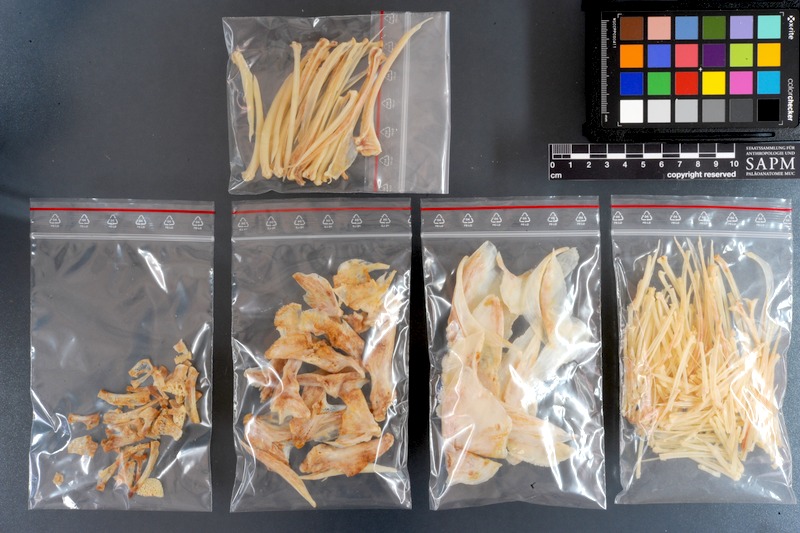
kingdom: Animalia
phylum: Chordata
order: Perciformes
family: Helostomatidae
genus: Helostoma
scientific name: Helostoma temminckii
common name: Kissing gourami
